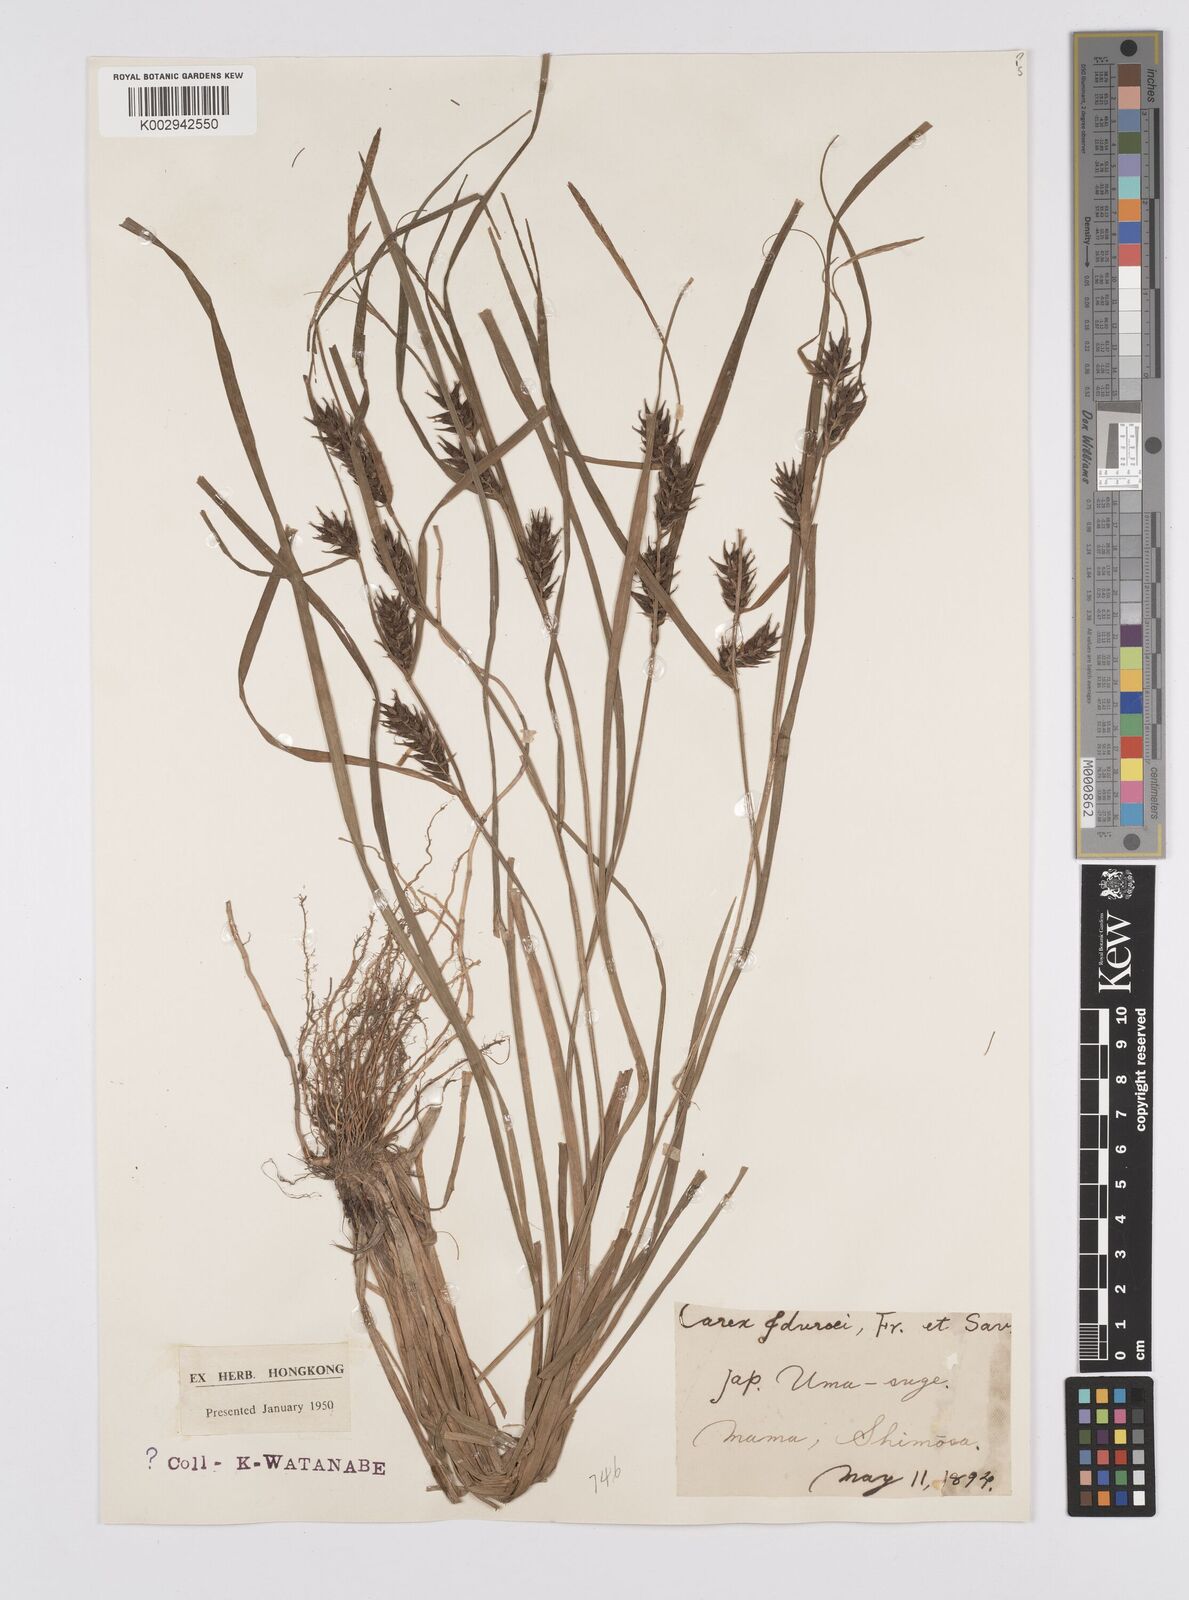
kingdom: Plantae
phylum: Tracheophyta
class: Liliopsida
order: Poales
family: Cyperaceae
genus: Carex
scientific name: Carex idzuroei
